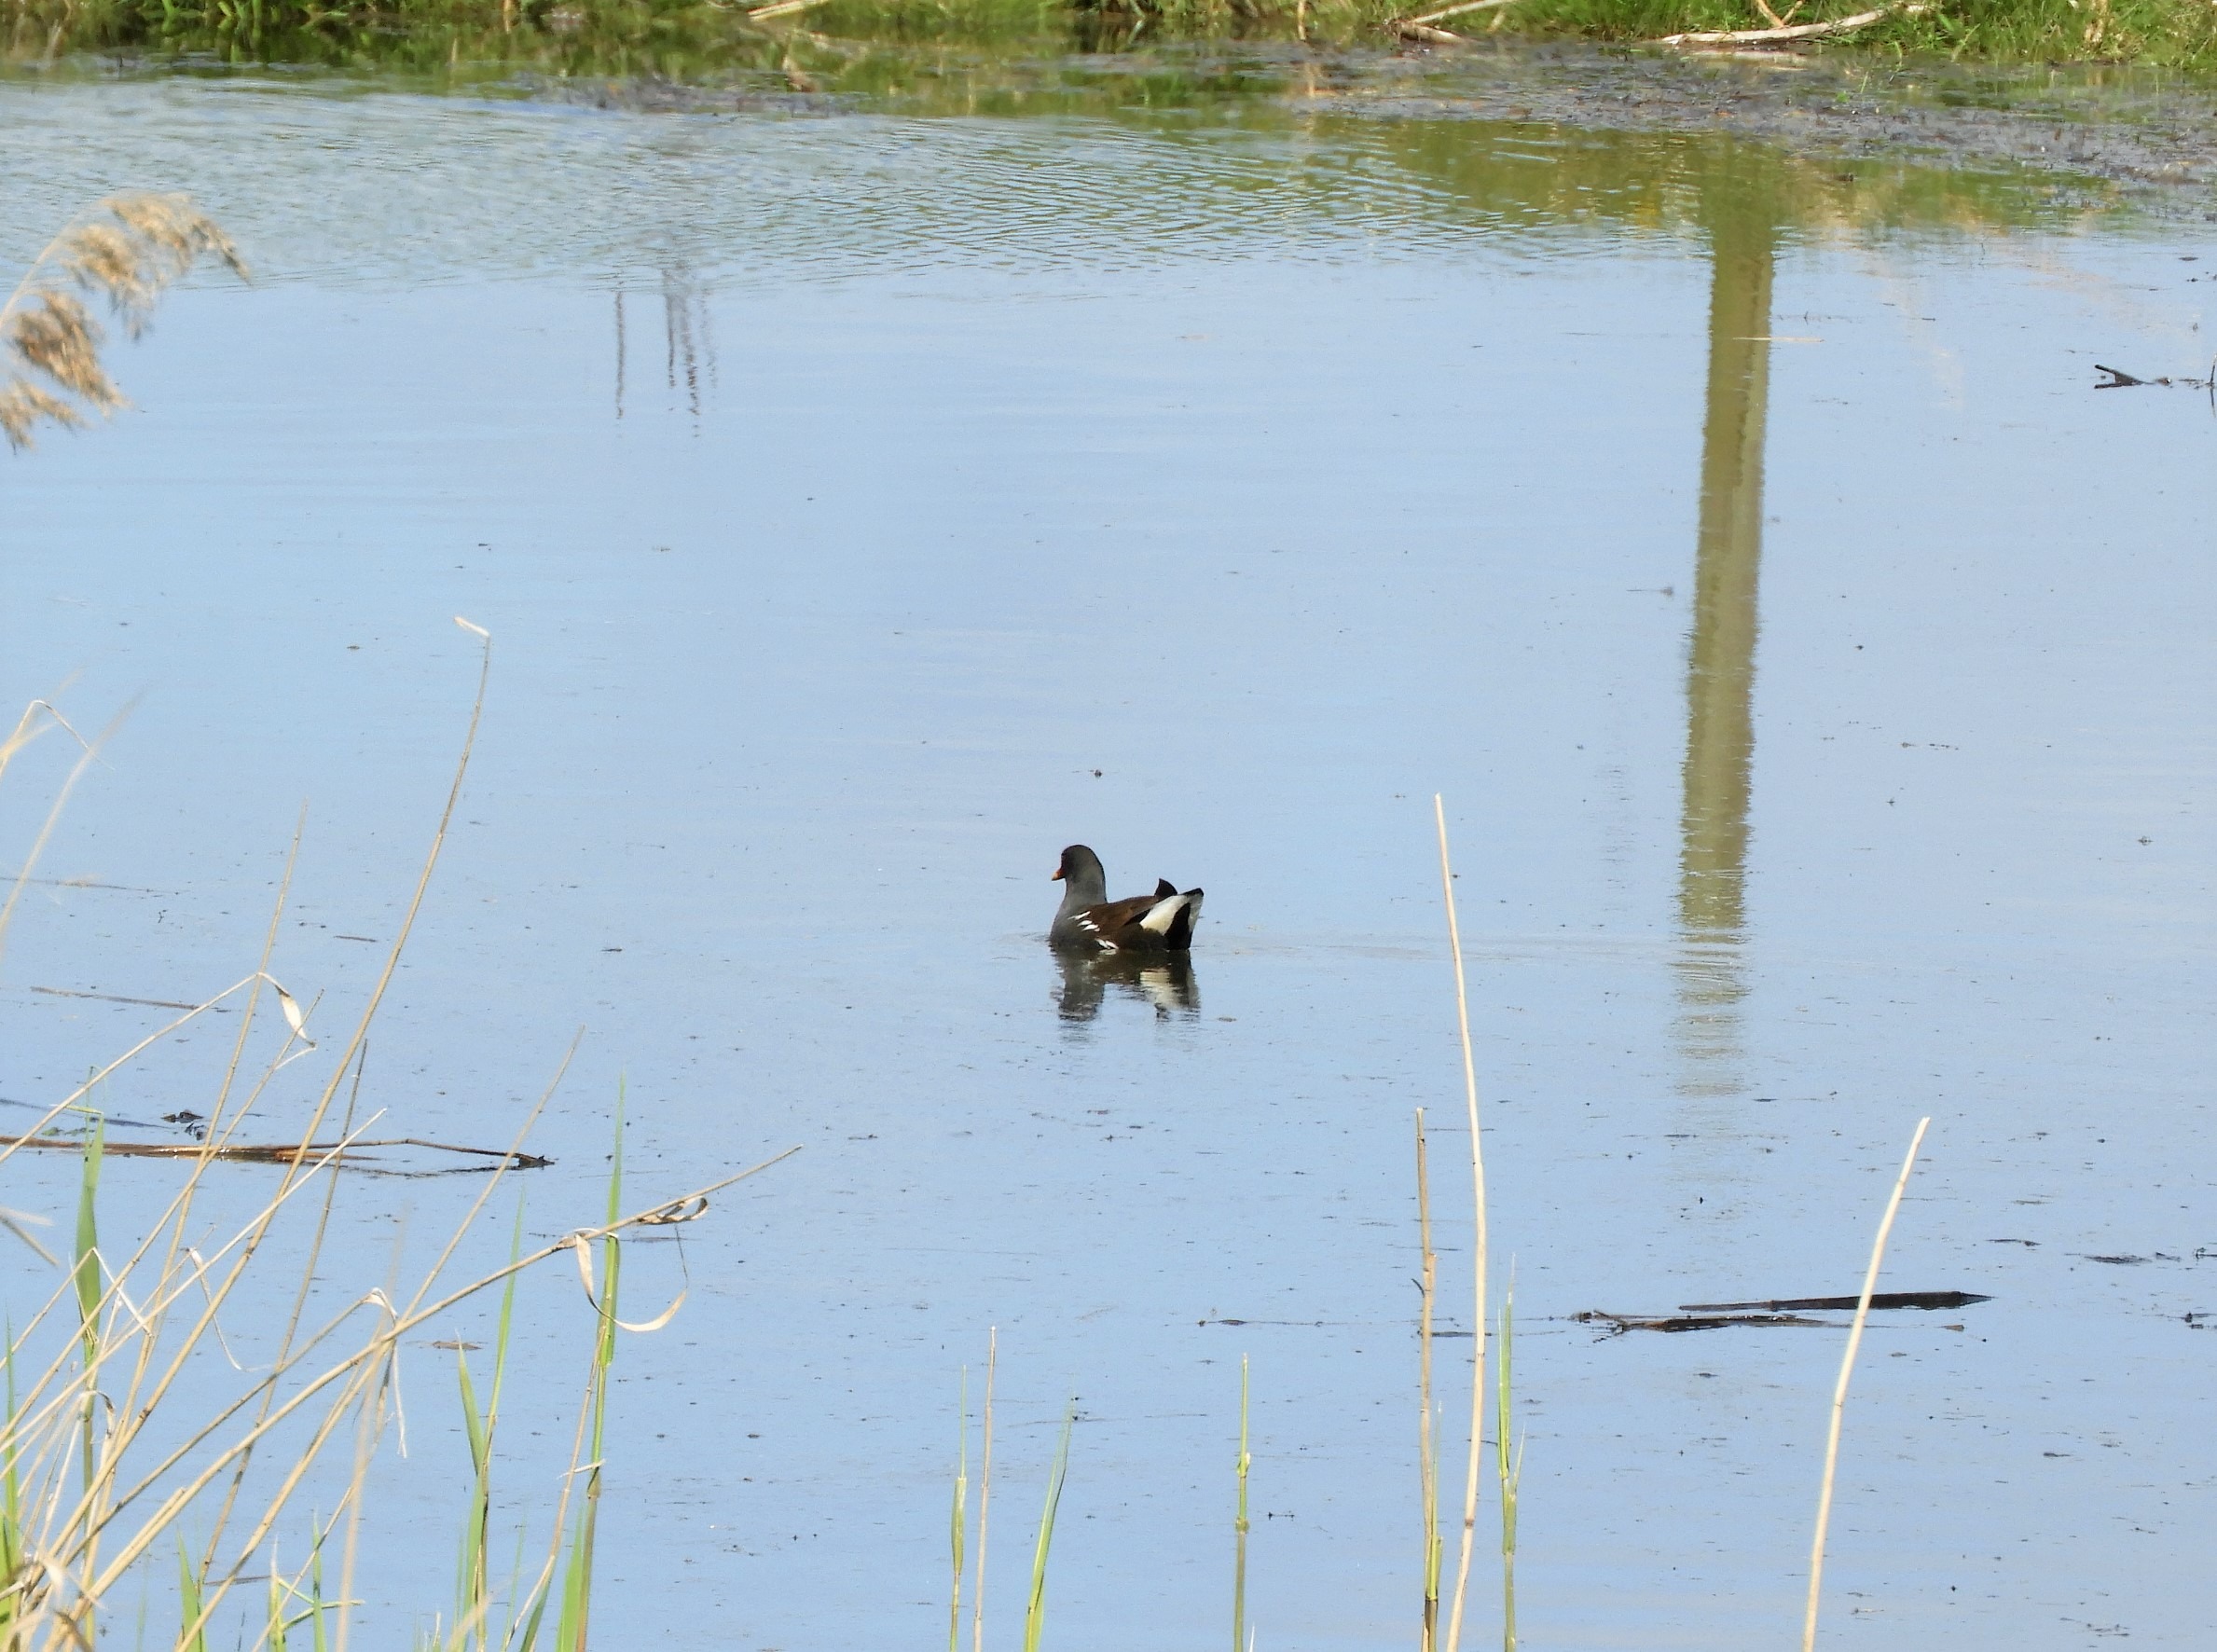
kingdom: Animalia
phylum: Chordata
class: Aves
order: Gruiformes
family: Rallidae
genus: Gallinula
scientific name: Gallinula chloropus
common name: Grønbenet rørhøne
